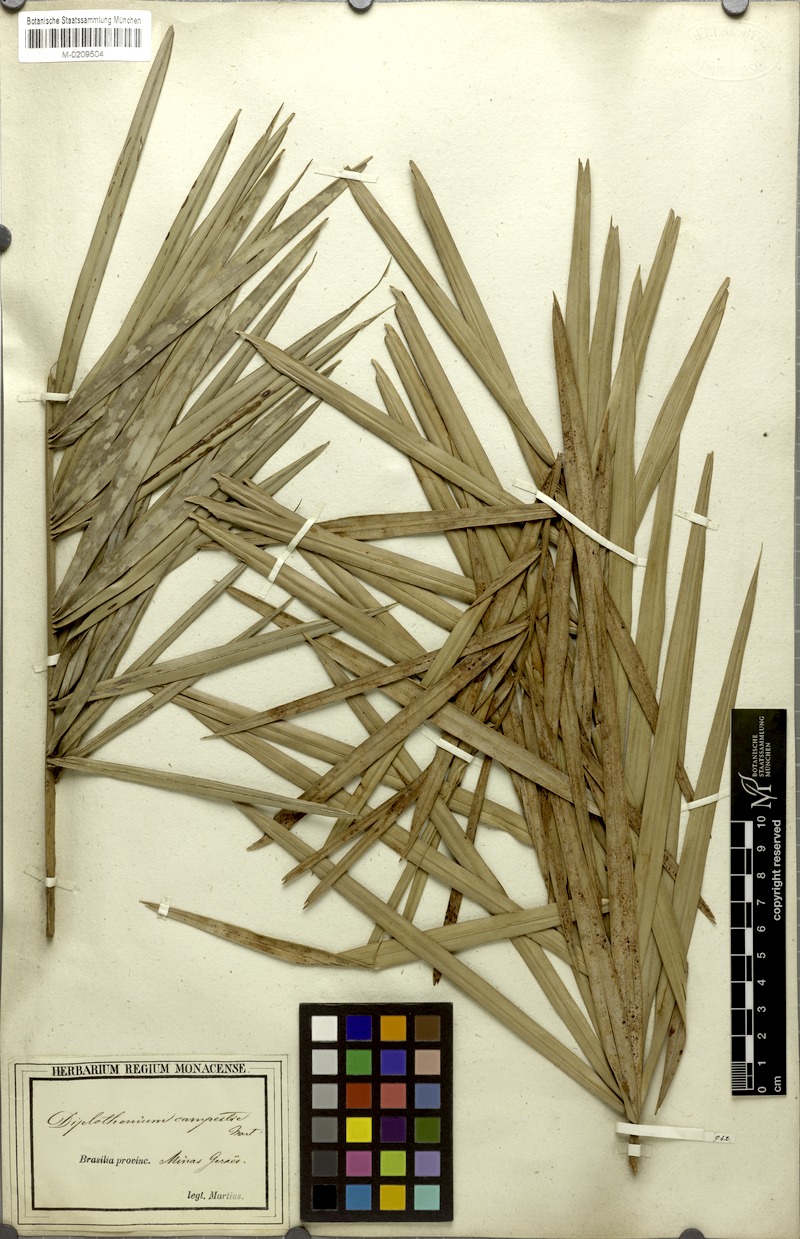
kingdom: Plantae
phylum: Tracheophyta
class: Liliopsida
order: Arecales
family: Arecaceae
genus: Allagoptera
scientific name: Allagoptera campestris
